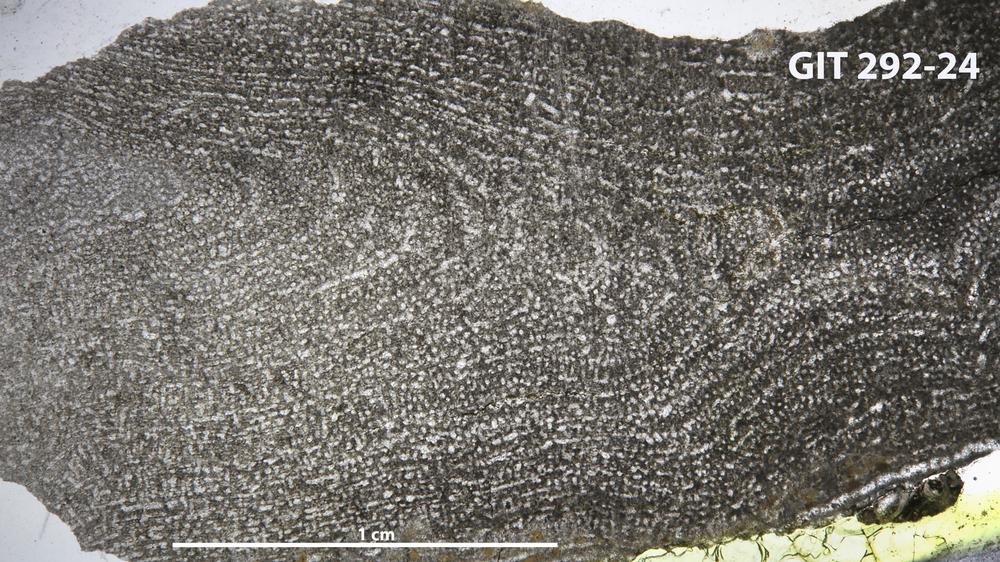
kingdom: Animalia
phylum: Porifera
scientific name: Porifera
